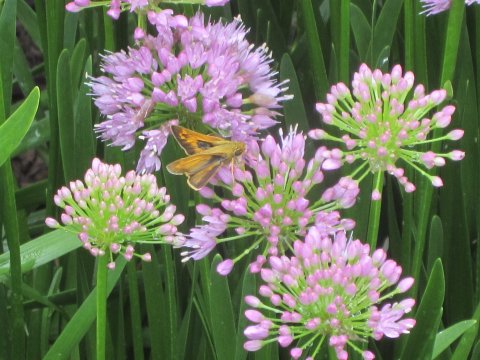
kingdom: Animalia
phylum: Arthropoda
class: Insecta
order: Lepidoptera
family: Hesperiidae
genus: Atalopedes
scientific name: Atalopedes campestris
